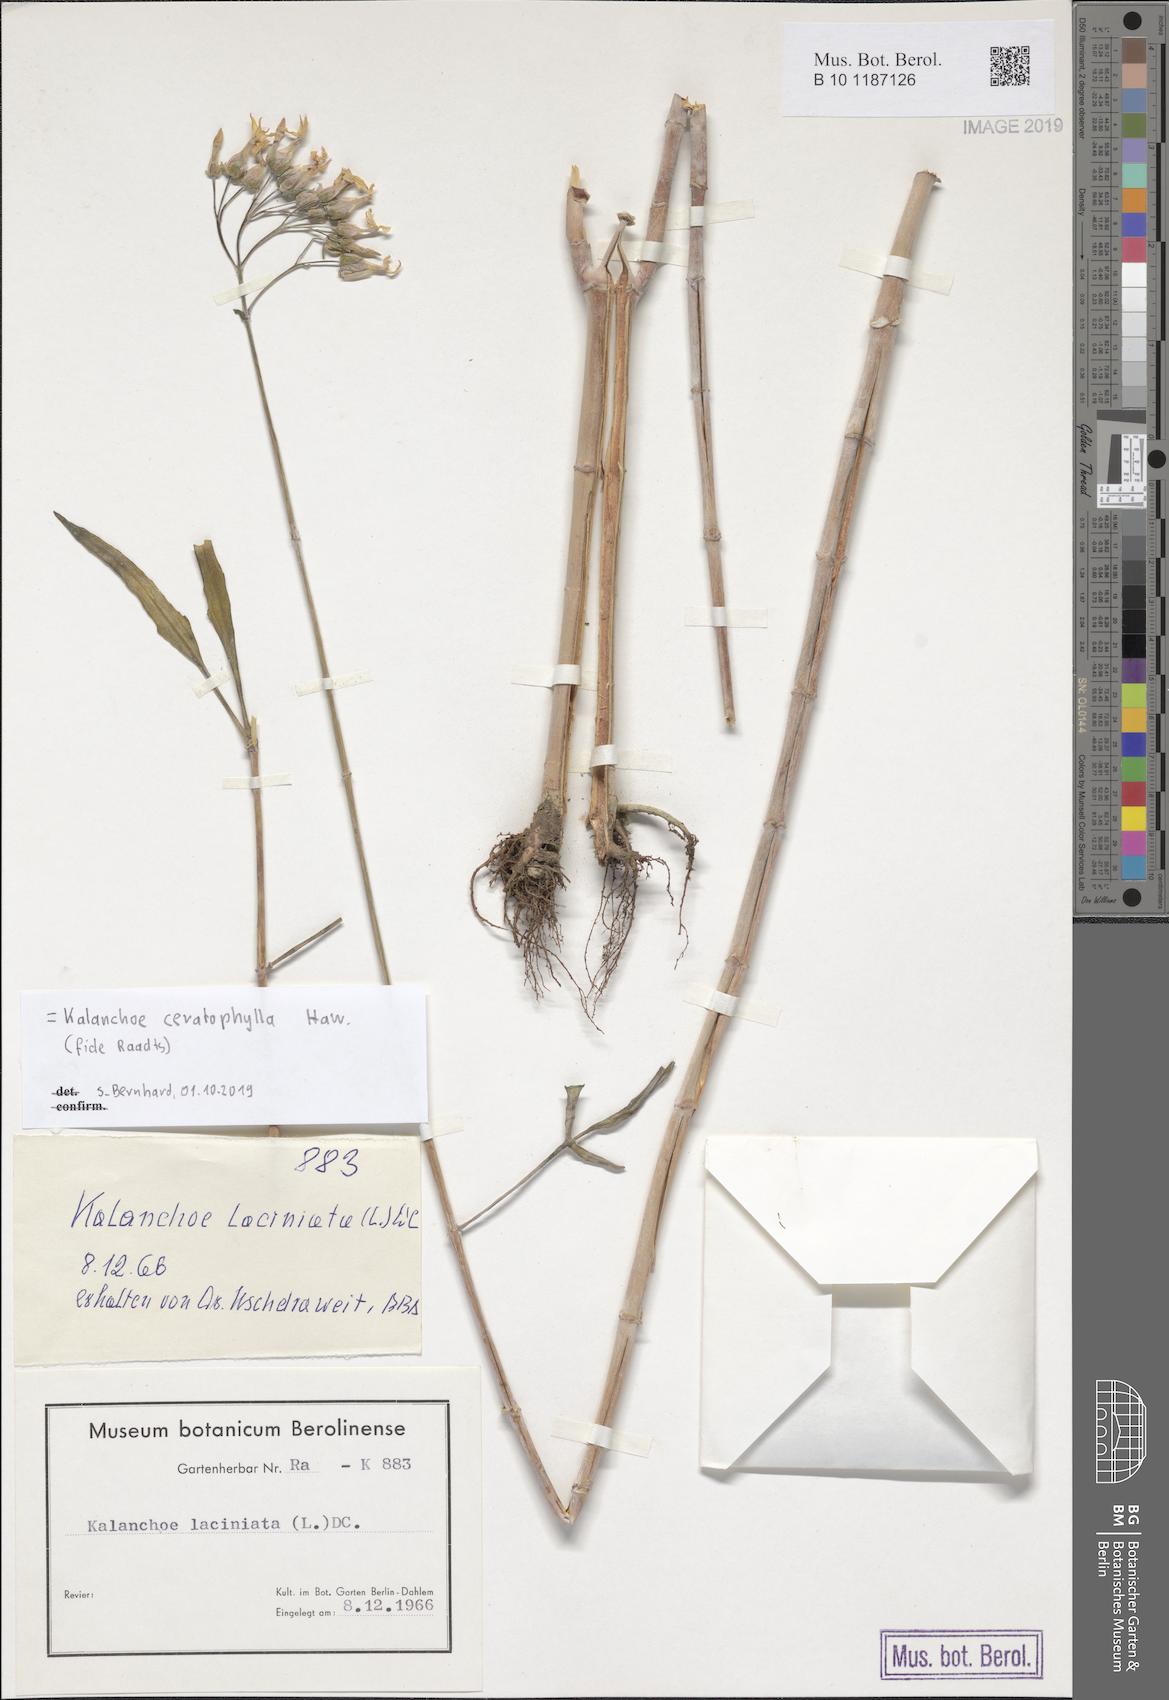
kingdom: Plantae
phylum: Tracheophyta
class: Magnoliopsida
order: Saxifragales
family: Crassulaceae
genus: Kalanchoe
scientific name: Kalanchoe ceratophylla
